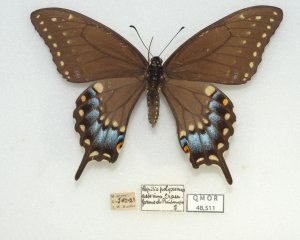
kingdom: Animalia
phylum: Arthropoda
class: Insecta
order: Lepidoptera
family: Papilionidae
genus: Papilio
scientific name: Papilio polyxenes
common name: Black Swallowtail
